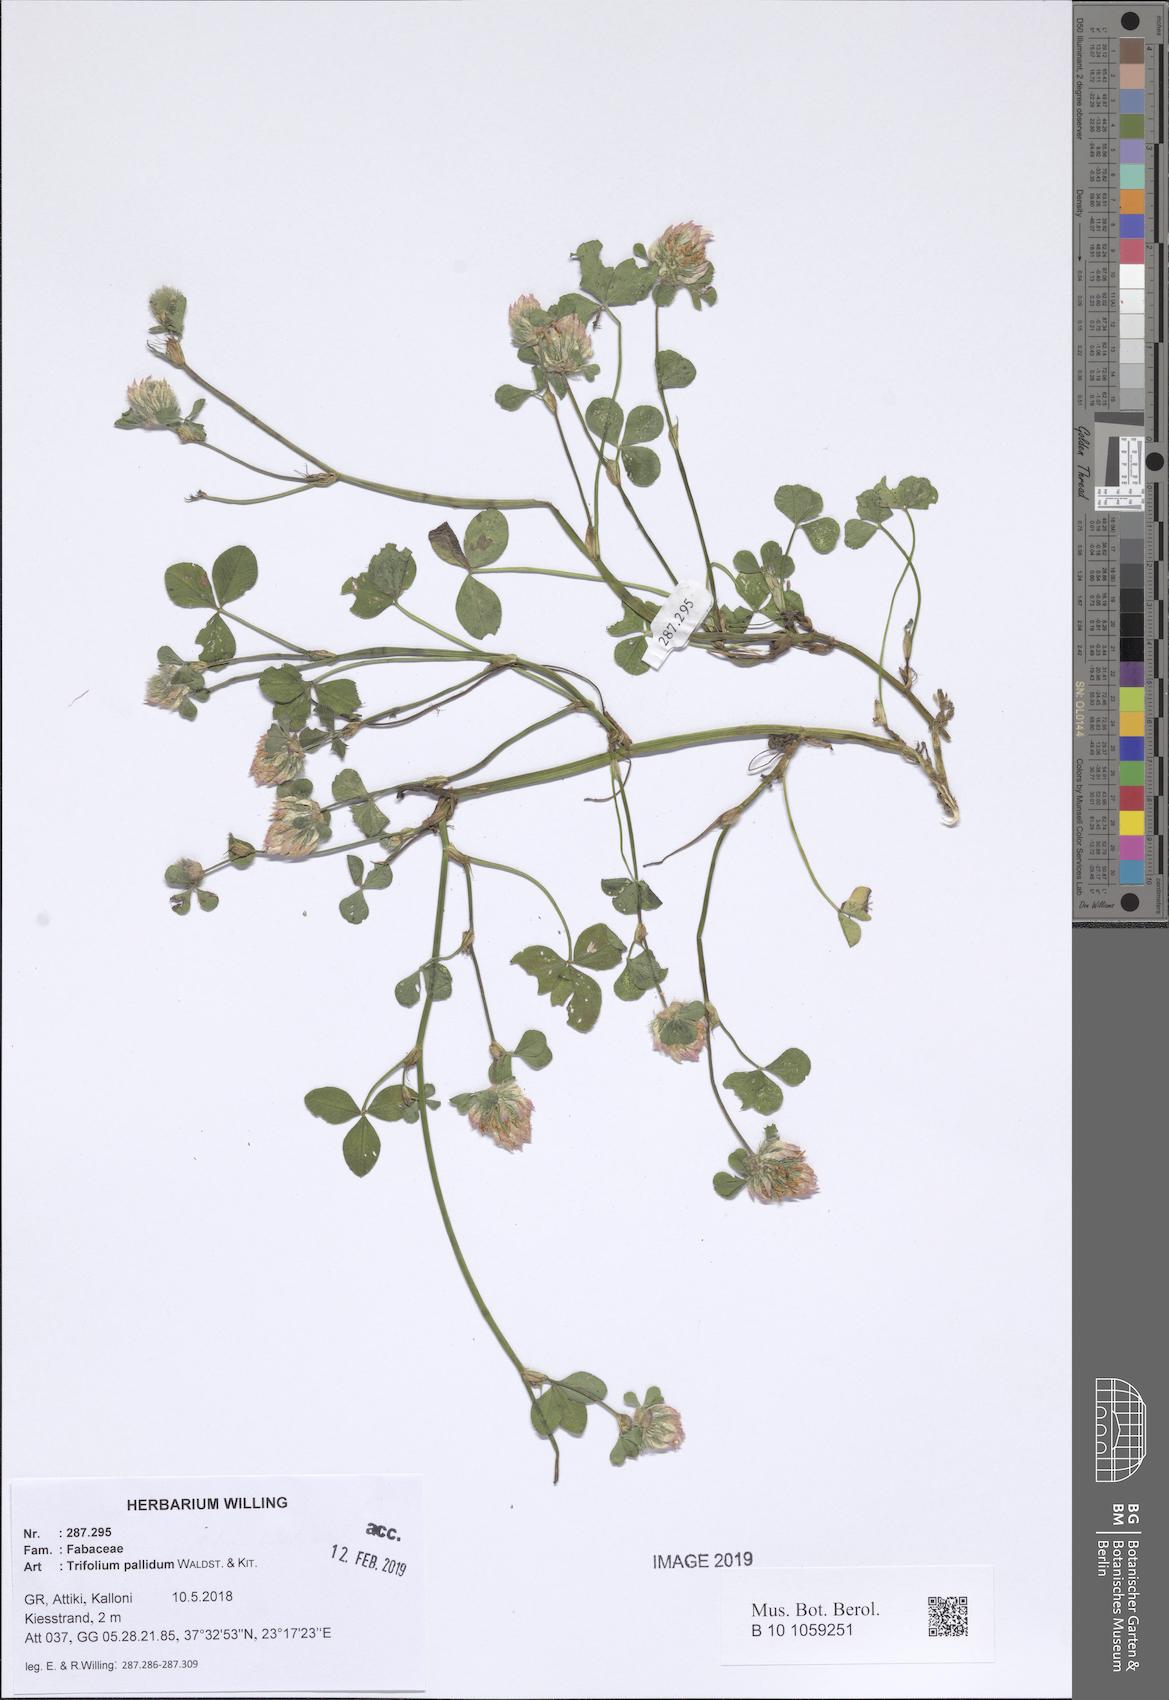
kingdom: Plantae
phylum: Tracheophyta
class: Magnoliopsida
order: Fabales
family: Fabaceae
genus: Trifolium
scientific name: Trifolium pallidum
